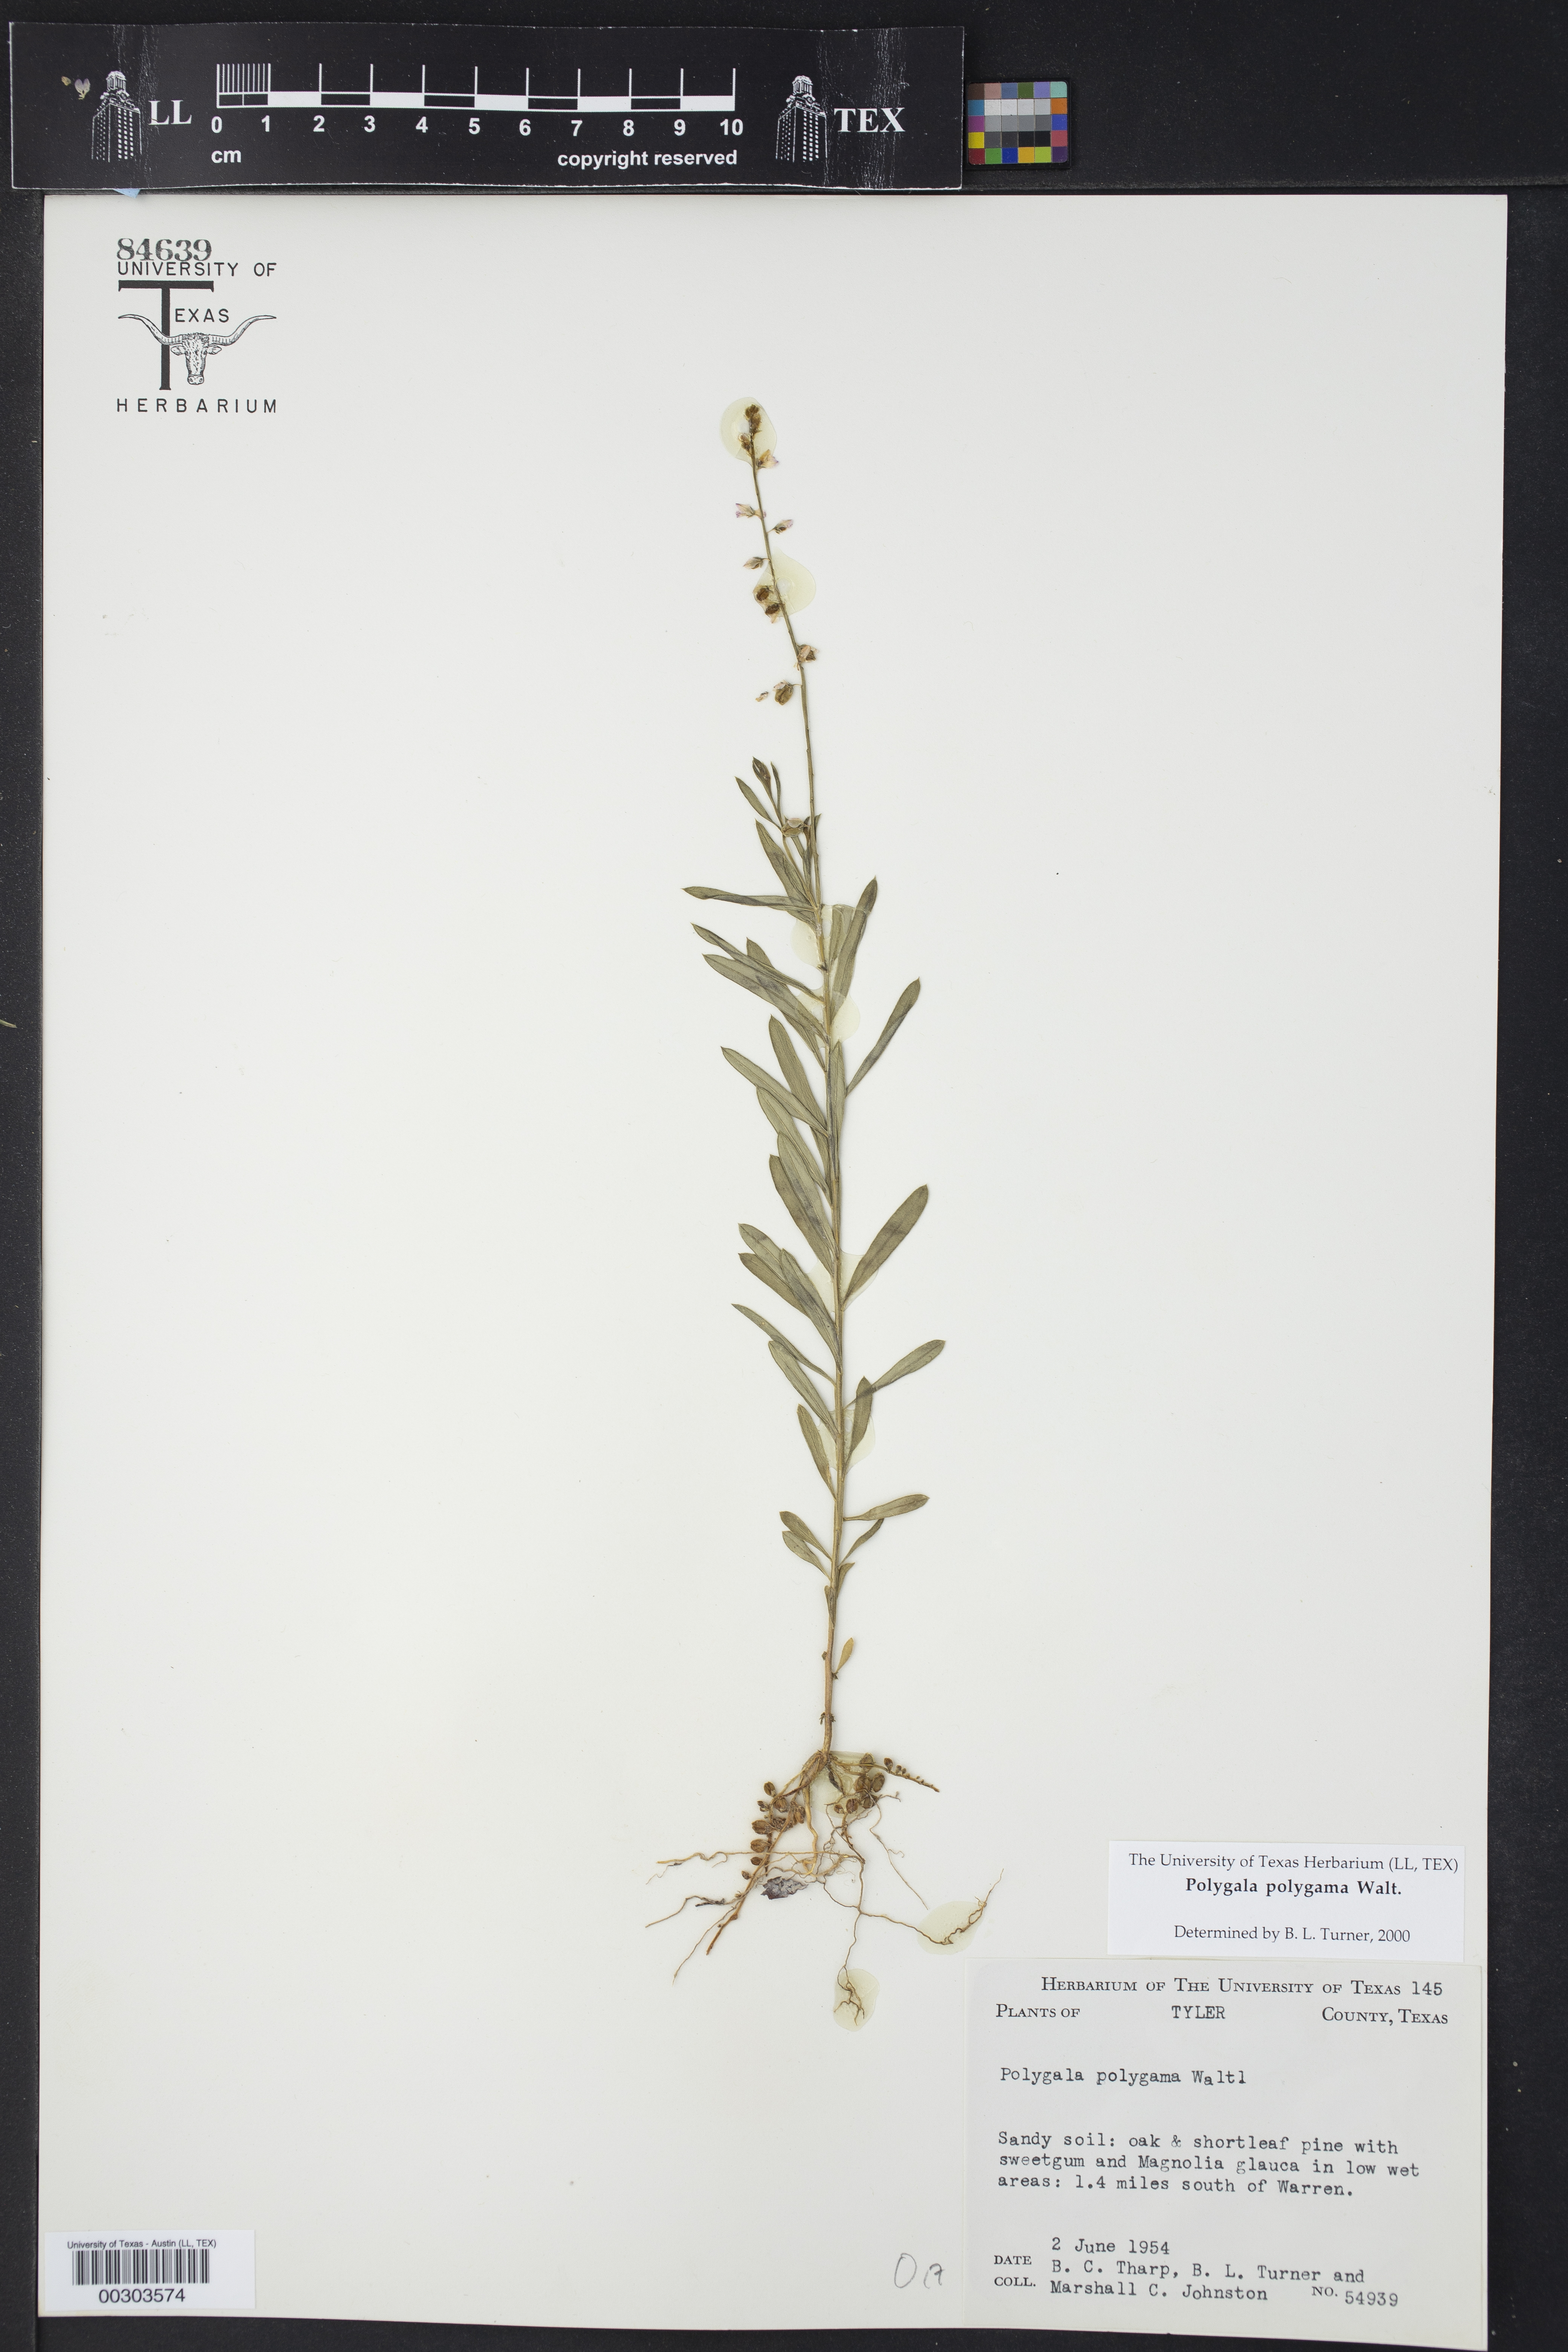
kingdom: Plantae
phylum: Tracheophyta
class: Magnoliopsida
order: Fabales
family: Polygalaceae
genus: Polygala
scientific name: Polygala polygama
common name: Bitter milkwort
